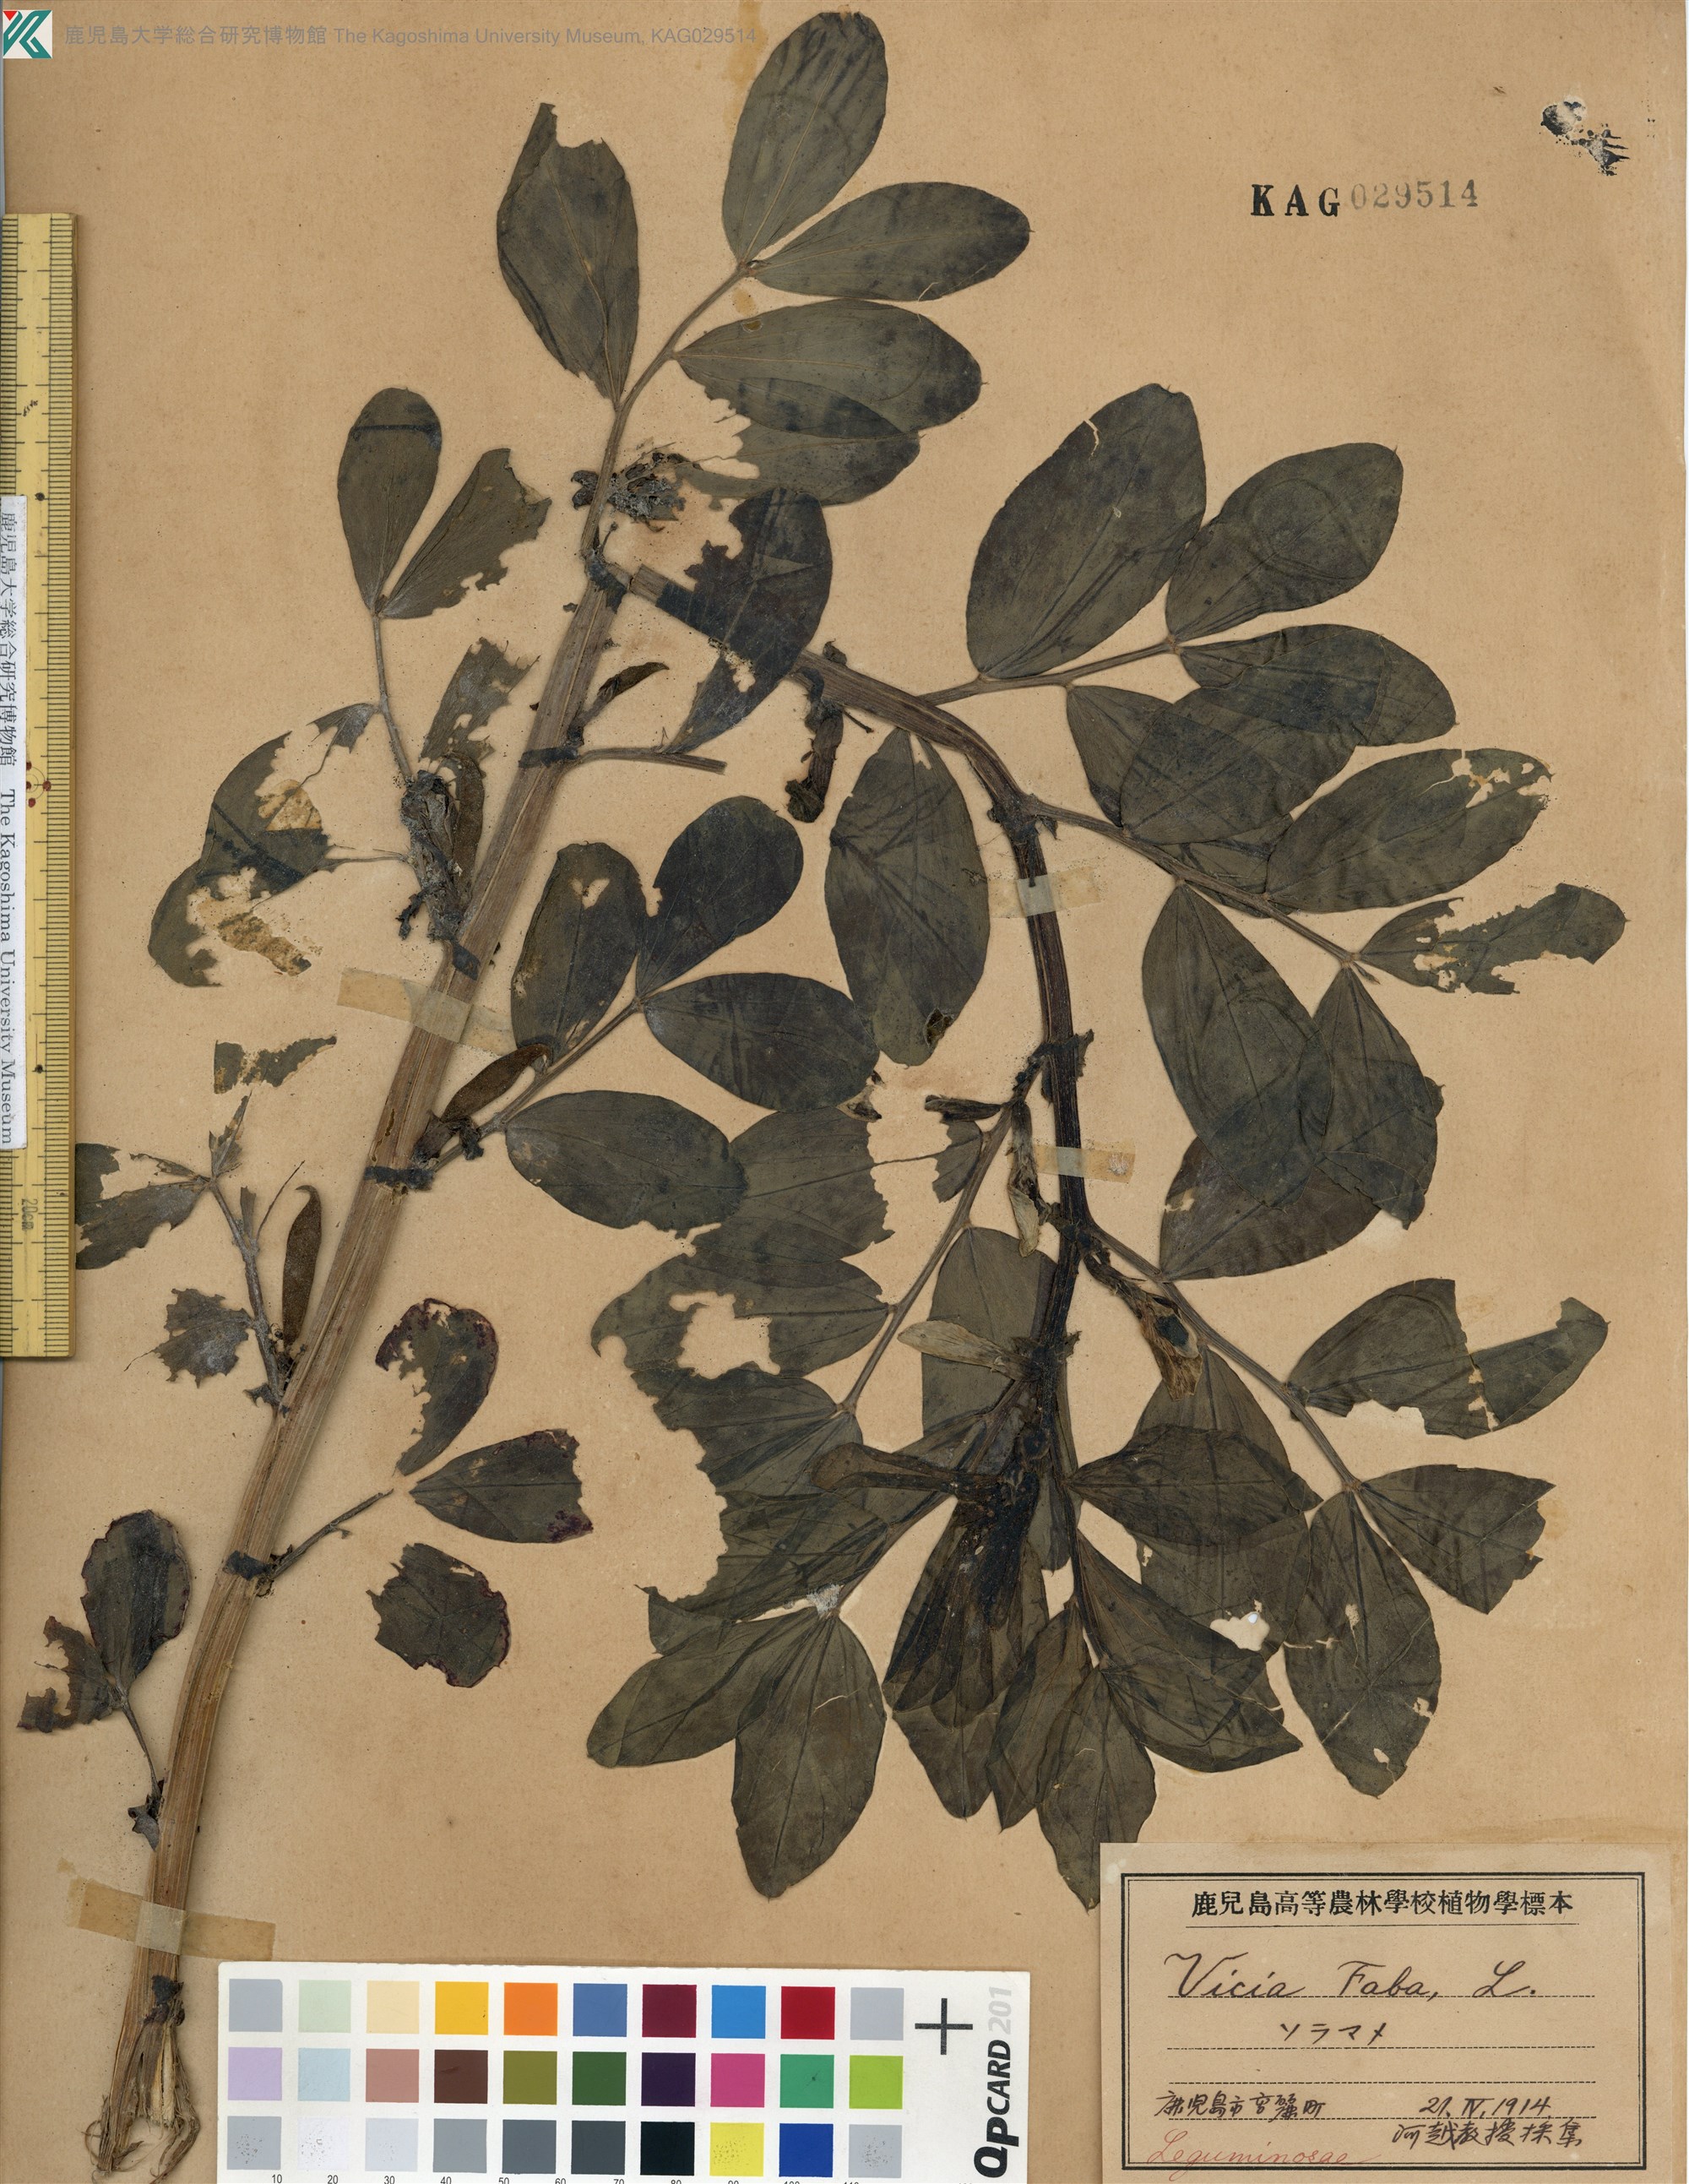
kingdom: Plantae
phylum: Tracheophyta
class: Magnoliopsida
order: Fabales
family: Fabaceae
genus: Vicia
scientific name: Vicia faba
